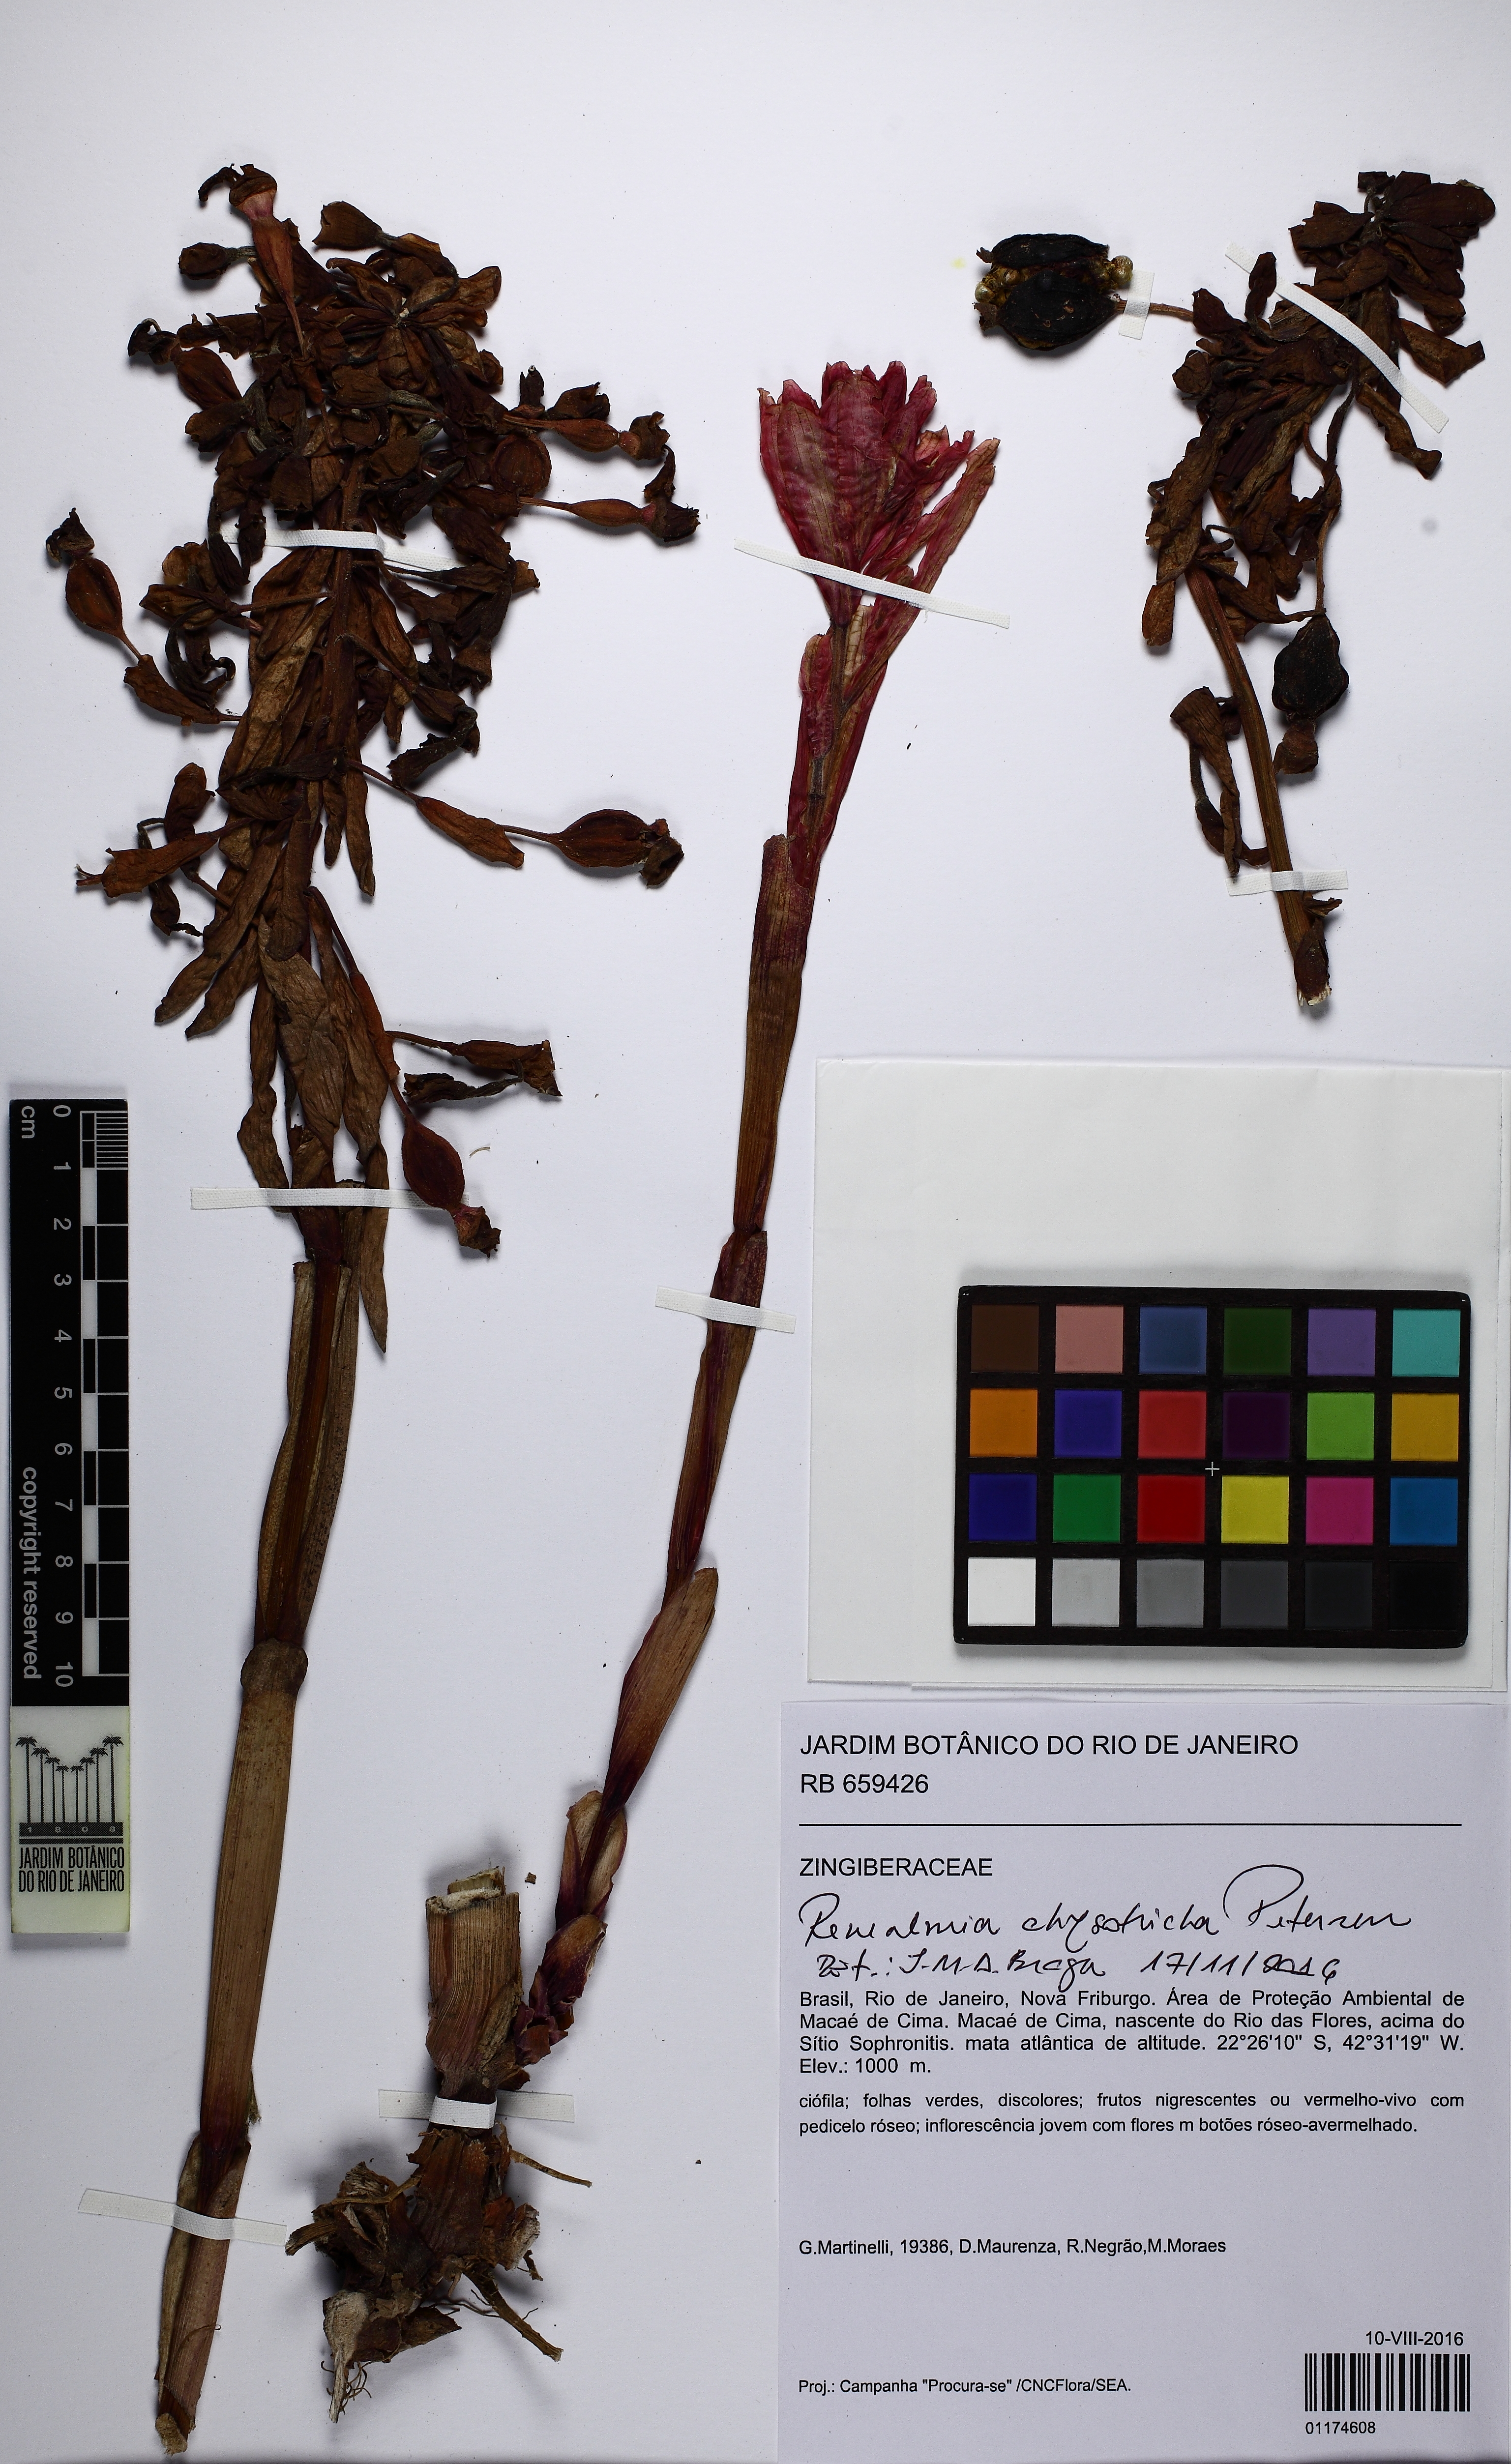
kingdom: Plantae
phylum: Tracheophyta
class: Liliopsida
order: Zingiberales
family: Zingiberaceae
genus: Renealmia
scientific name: Renealmia chrysotricha
